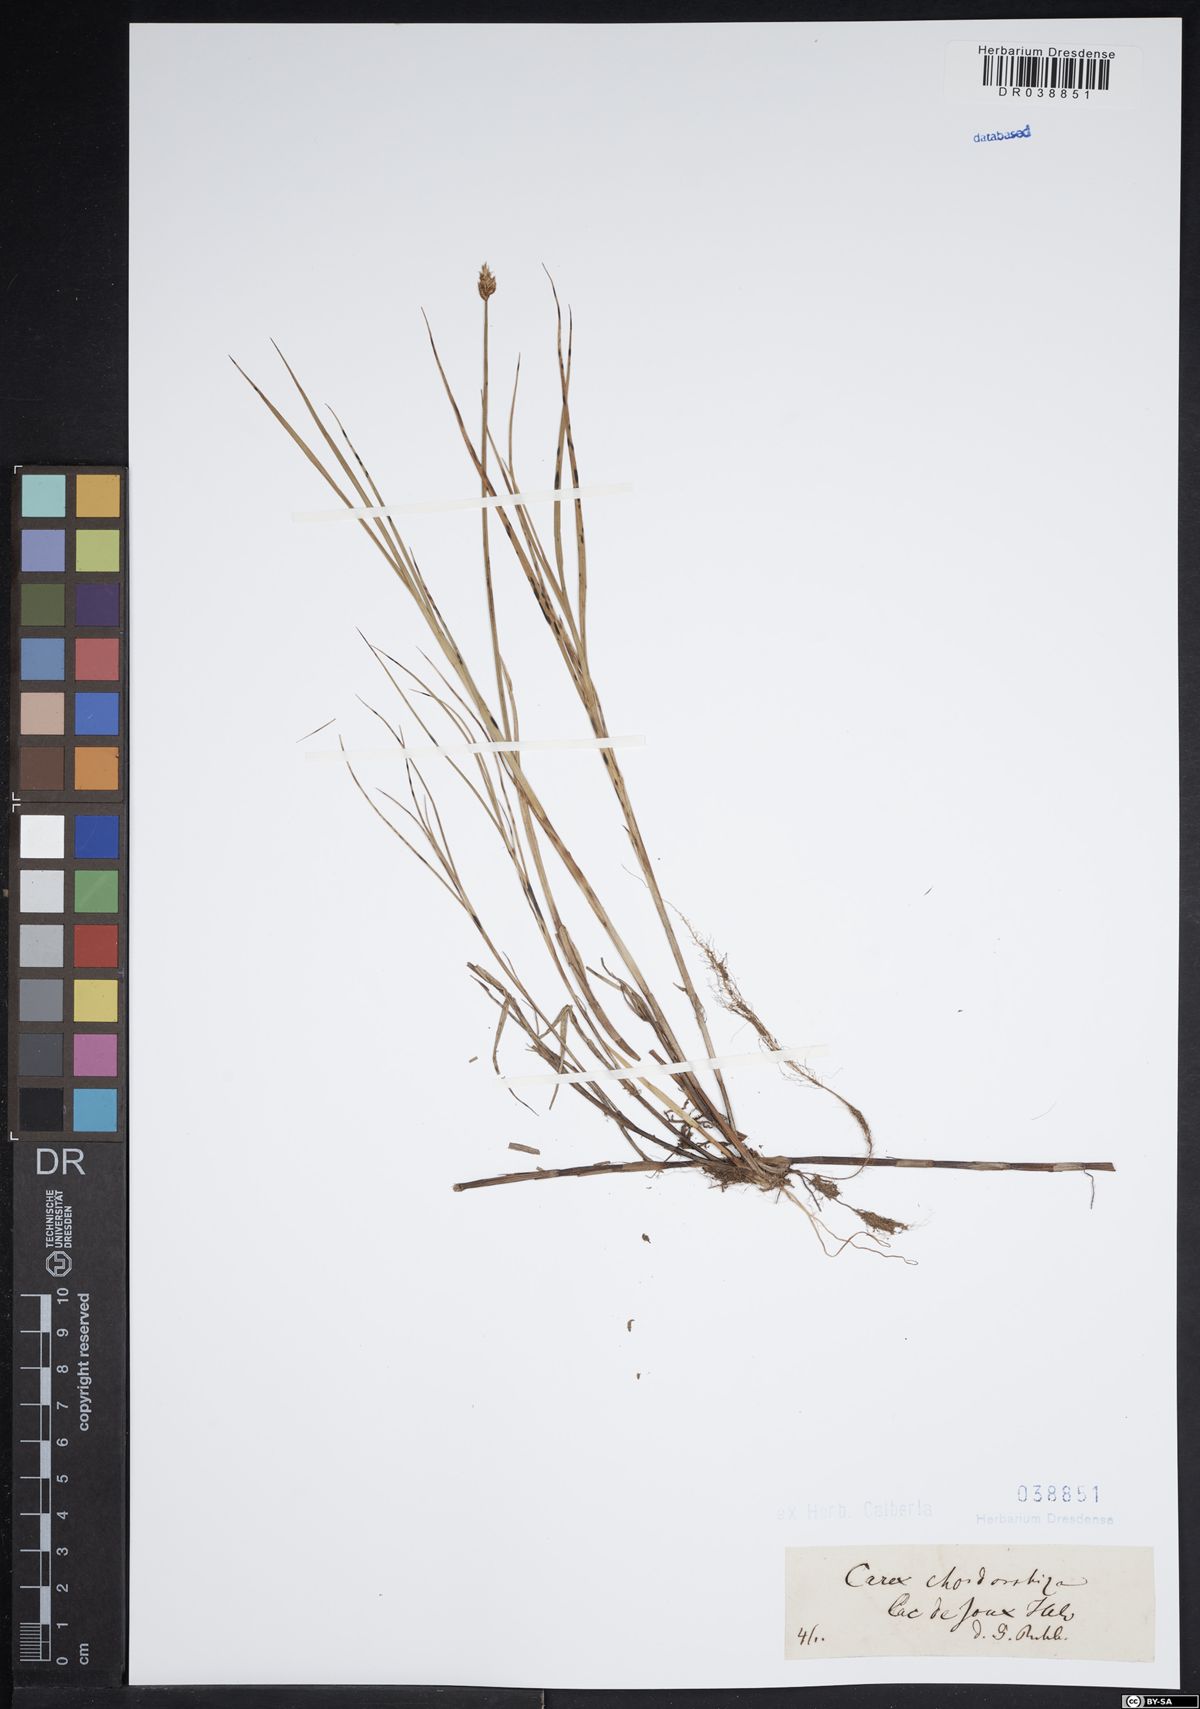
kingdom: Plantae
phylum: Tracheophyta
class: Liliopsida
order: Poales
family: Cyperaceae
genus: Carex
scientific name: Carex chordorrhiza
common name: String sedge
